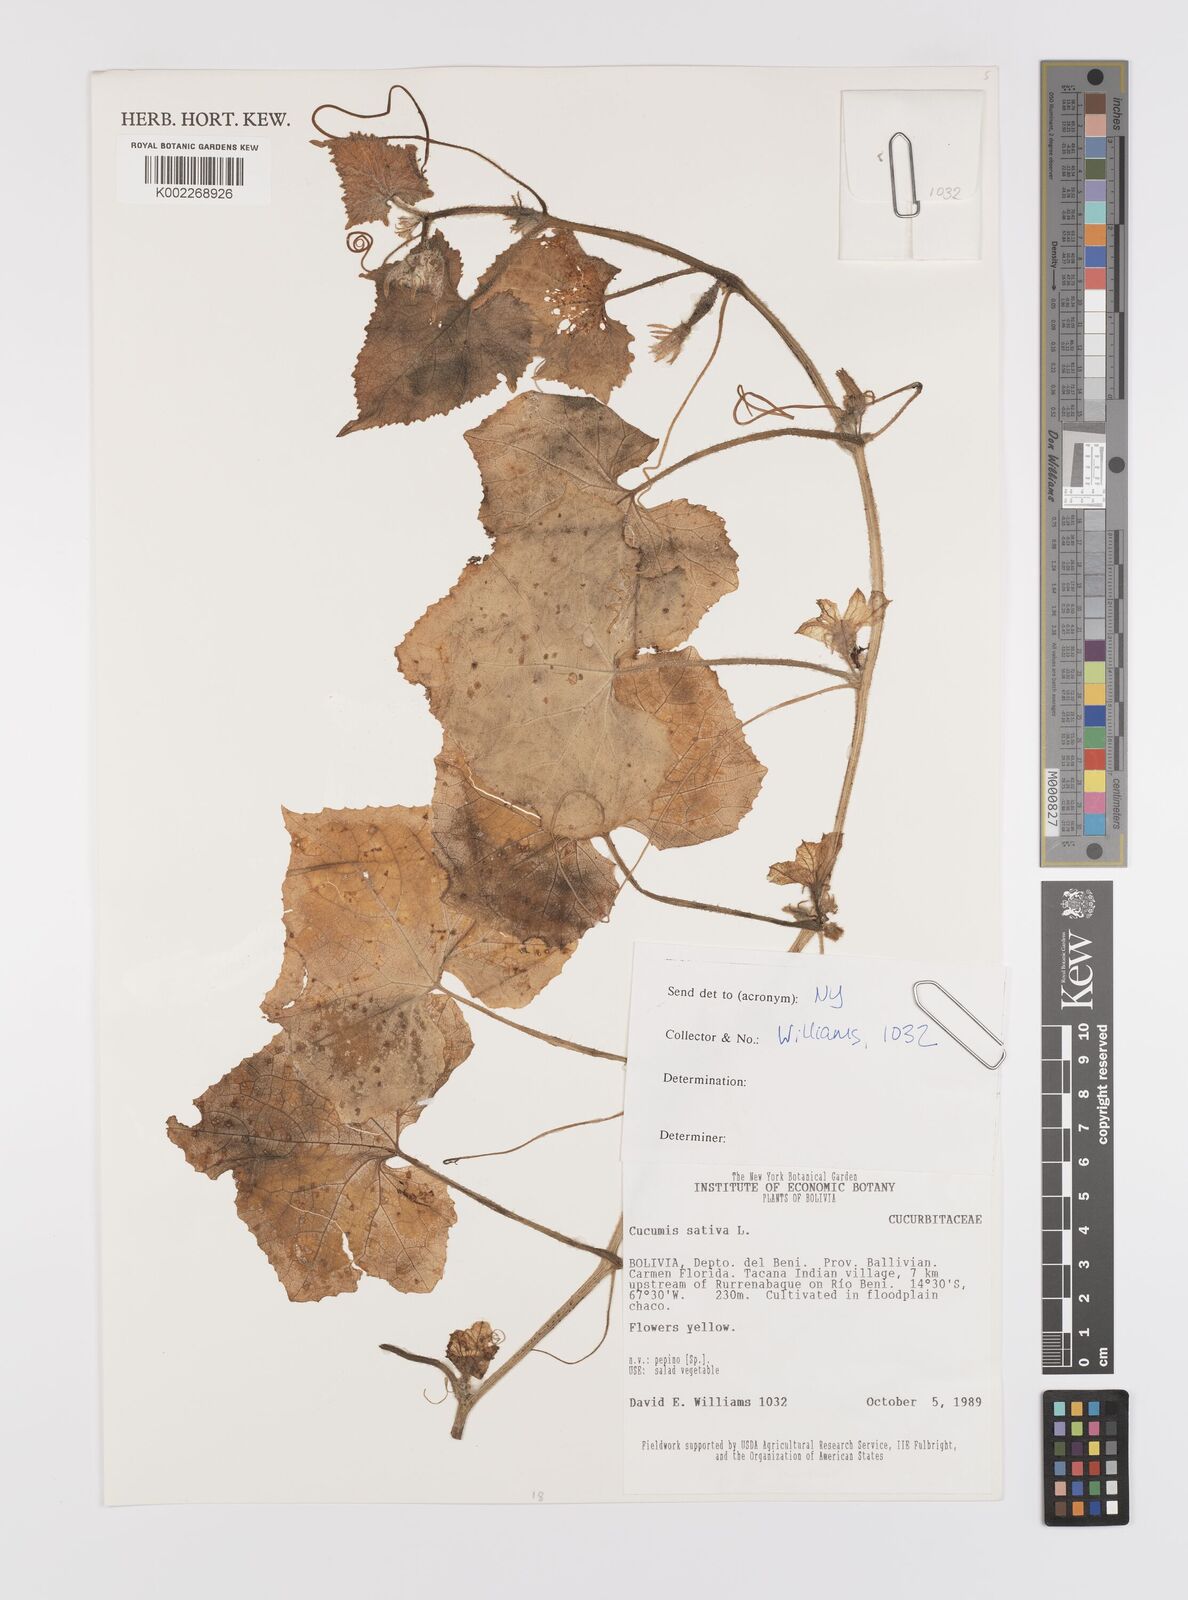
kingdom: Plantae
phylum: Tracheophyta
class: Magnoliopsida
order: Cucurbitales
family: Cucurbitaceae
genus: Cucumis
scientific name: Cucumis sativus
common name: Cucumber
